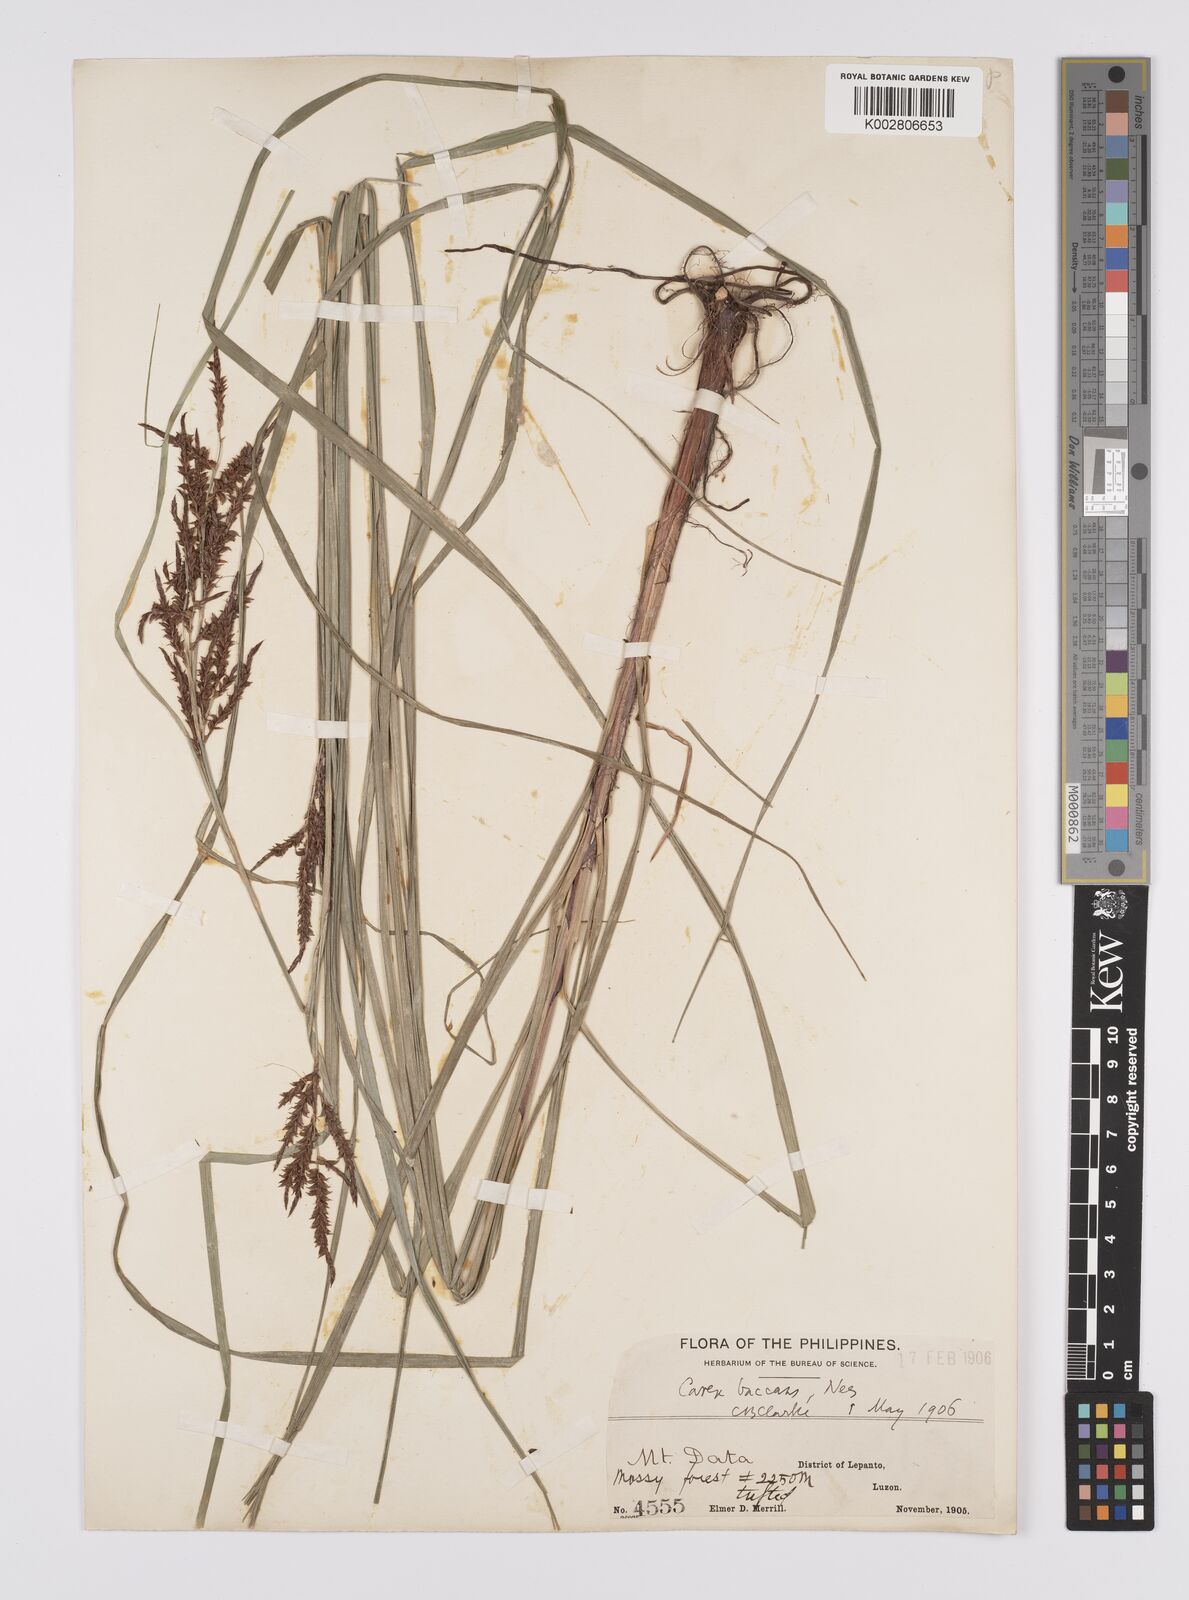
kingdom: Plantae
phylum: Tracheophyta
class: Liliopsida
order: Poales
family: Cyperaceae
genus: Carex
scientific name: Carex baccans
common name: Crimson seeded sedge
